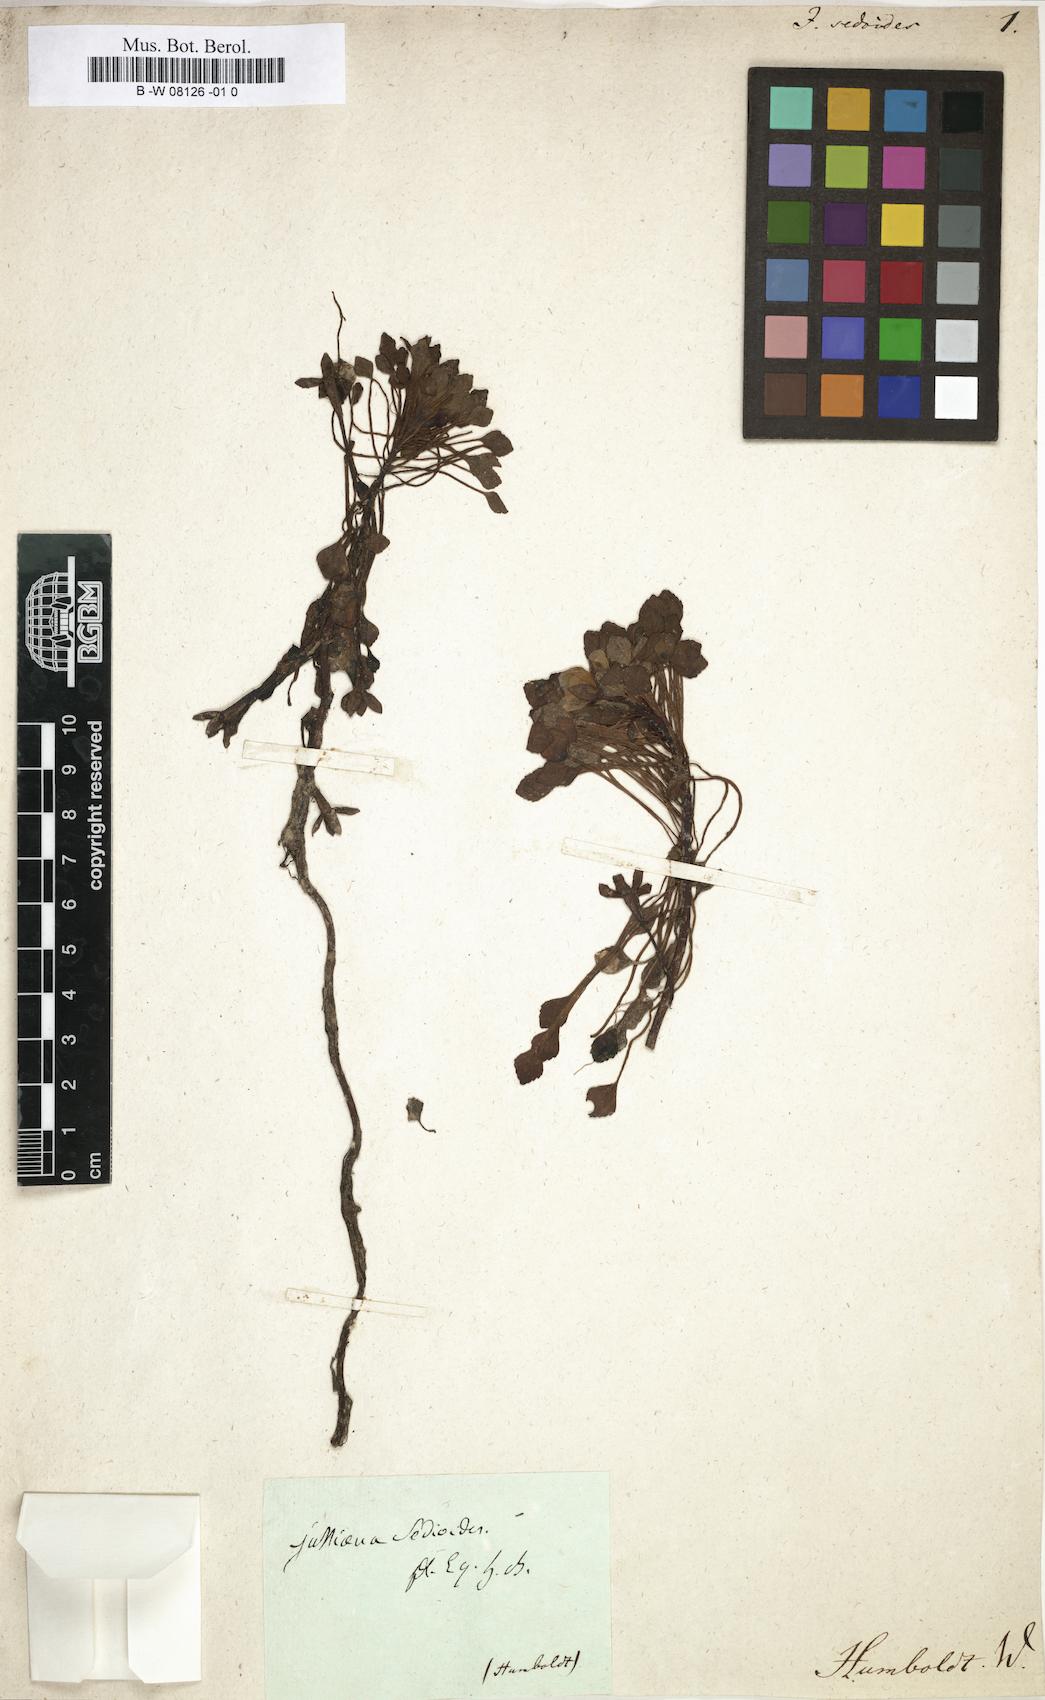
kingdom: Plantae
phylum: Tracheophyta
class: Magnoliopsida
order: Myrtales
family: Onagraceae
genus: Ludwigia
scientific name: Ludwigia sedoides
